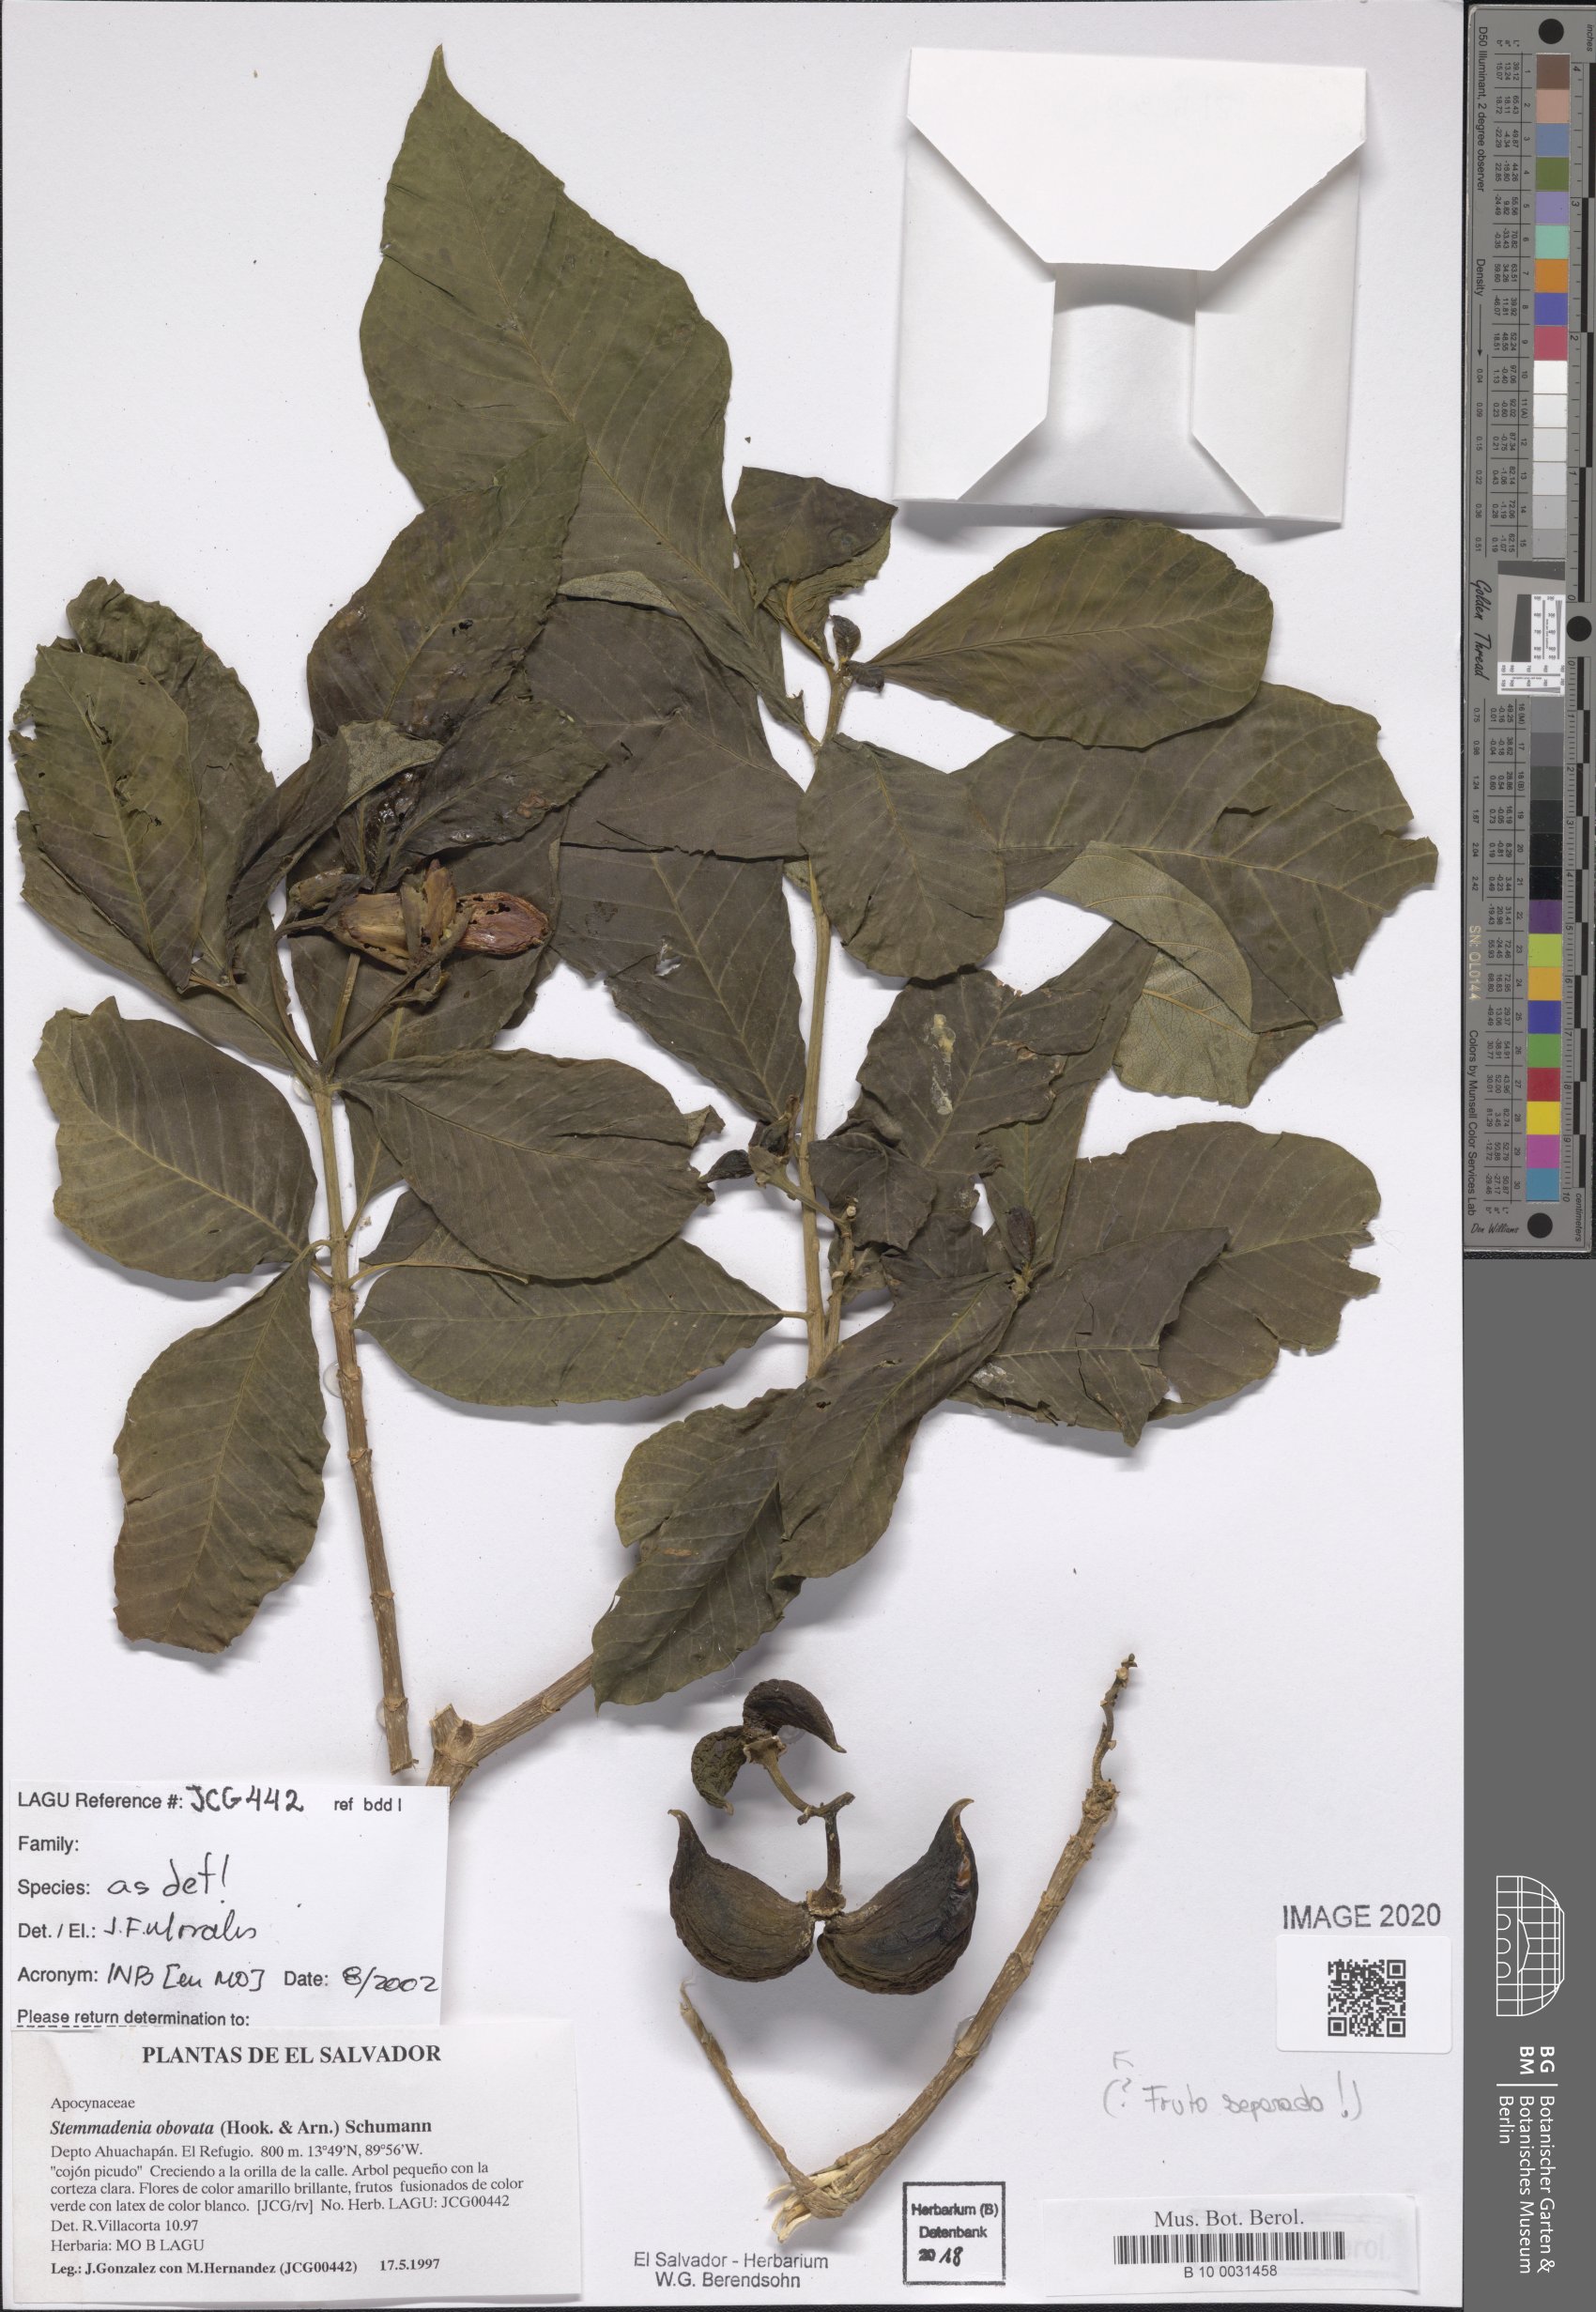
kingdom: Plantae
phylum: Tracheophyta
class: Magnoliopsida
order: Gentianales
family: Apocynaceae
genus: Tabernaemontana
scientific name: Tabernaemontana glabra
